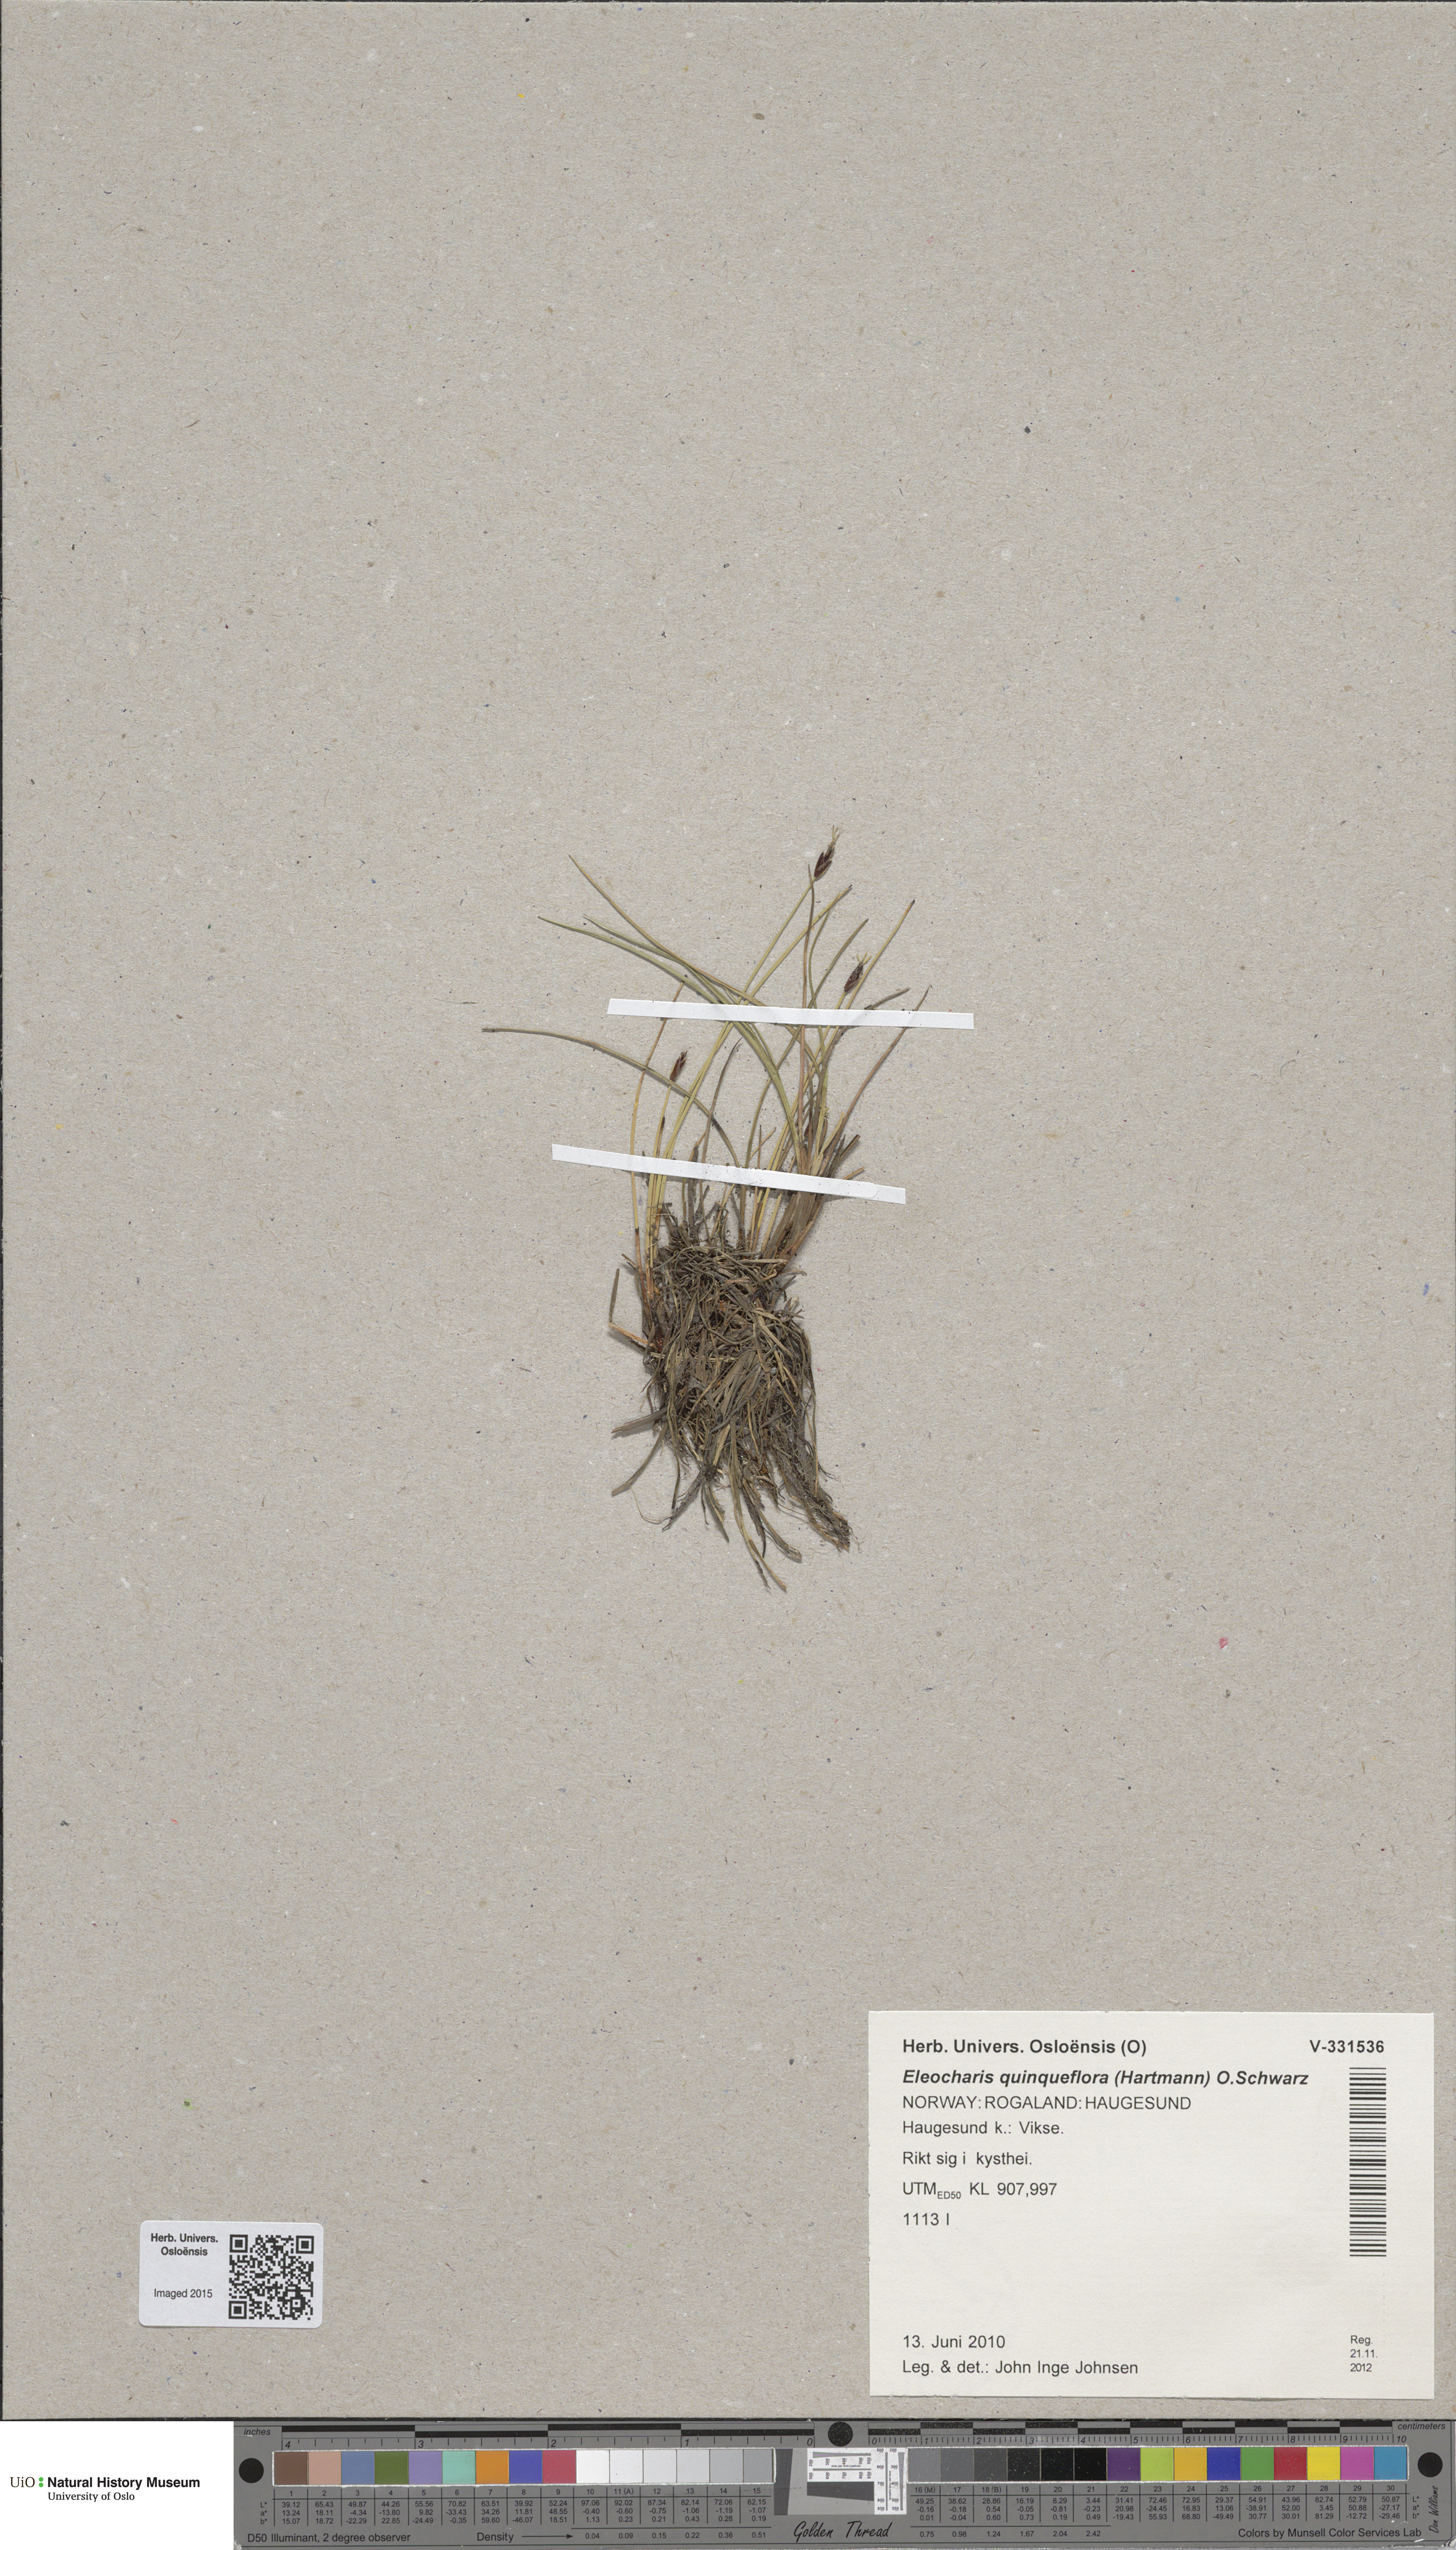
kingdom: Plantae
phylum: Tracheophyta
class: Liliopsida
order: Poales
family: Cyperaceae
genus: Eleocharis
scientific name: Eleocharis quinqueflora
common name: Few-flowered spike-rush
